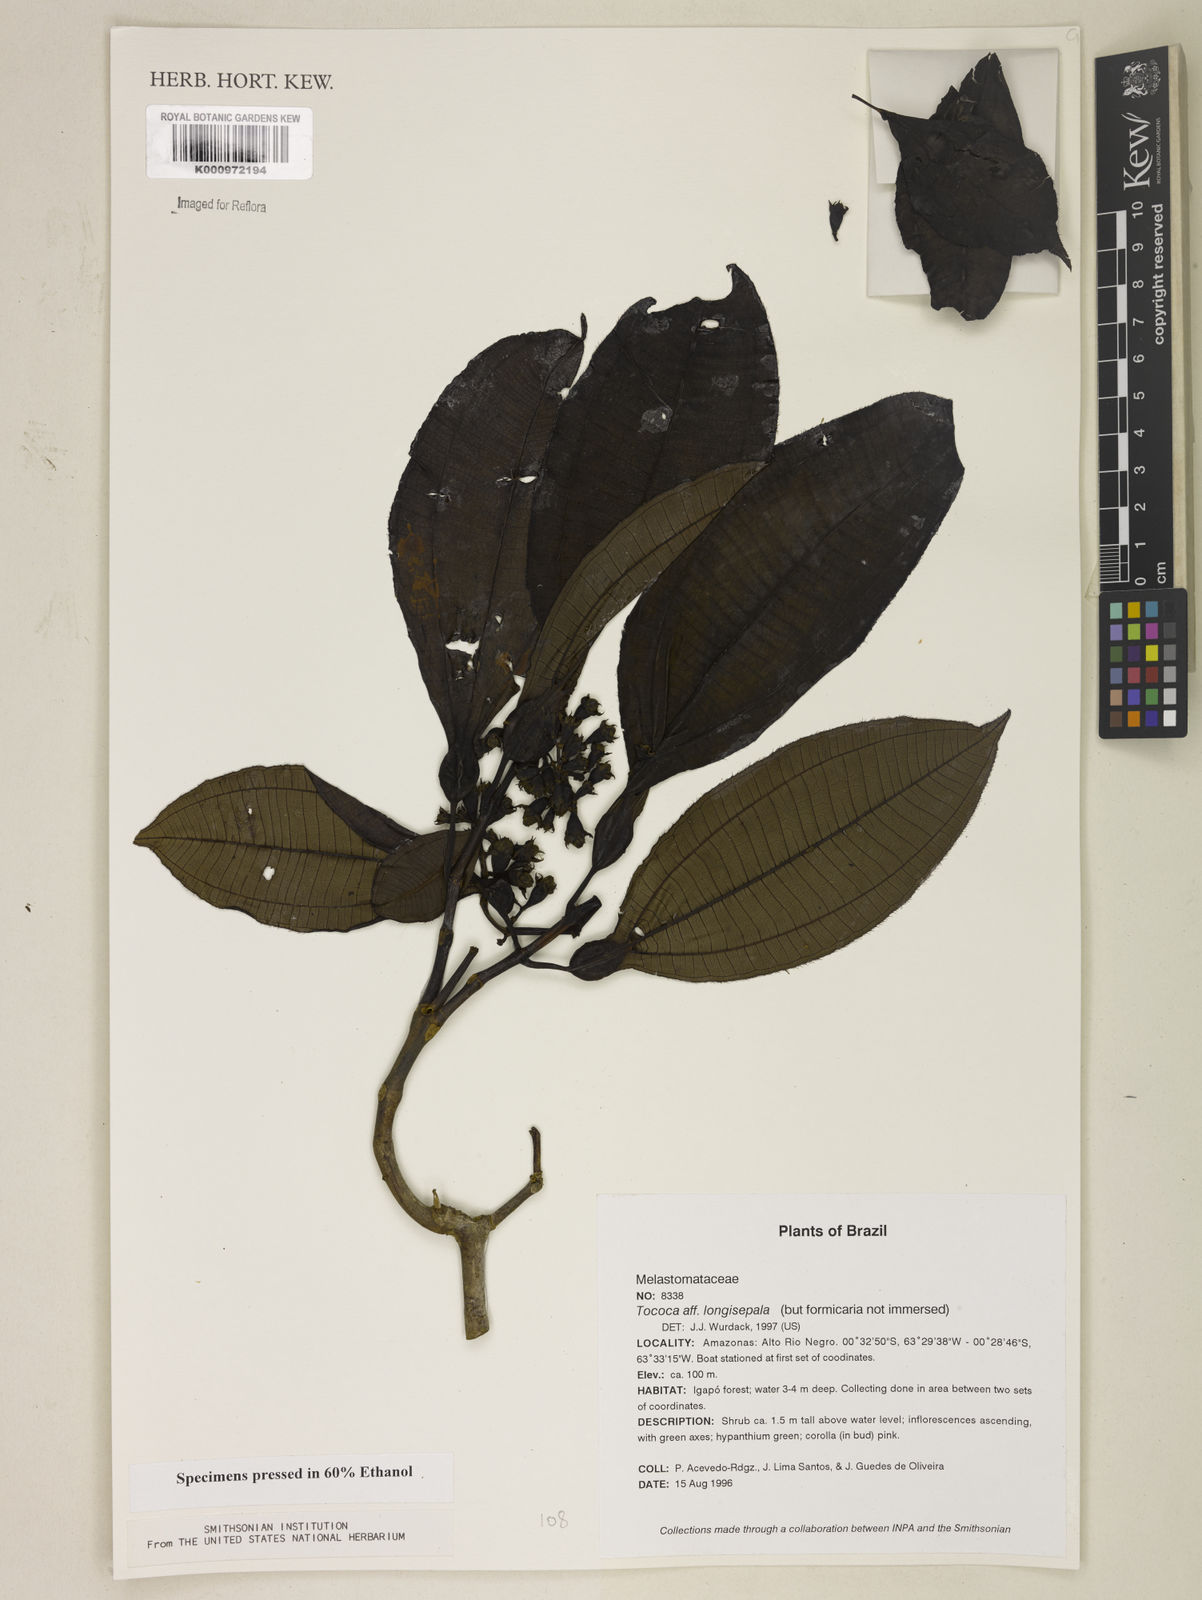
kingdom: Plantae
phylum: Tracheophyta
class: Magnoliopsida
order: Myrtales
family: Melastomataceae
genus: Miconia
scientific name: Miconia tococoronata
